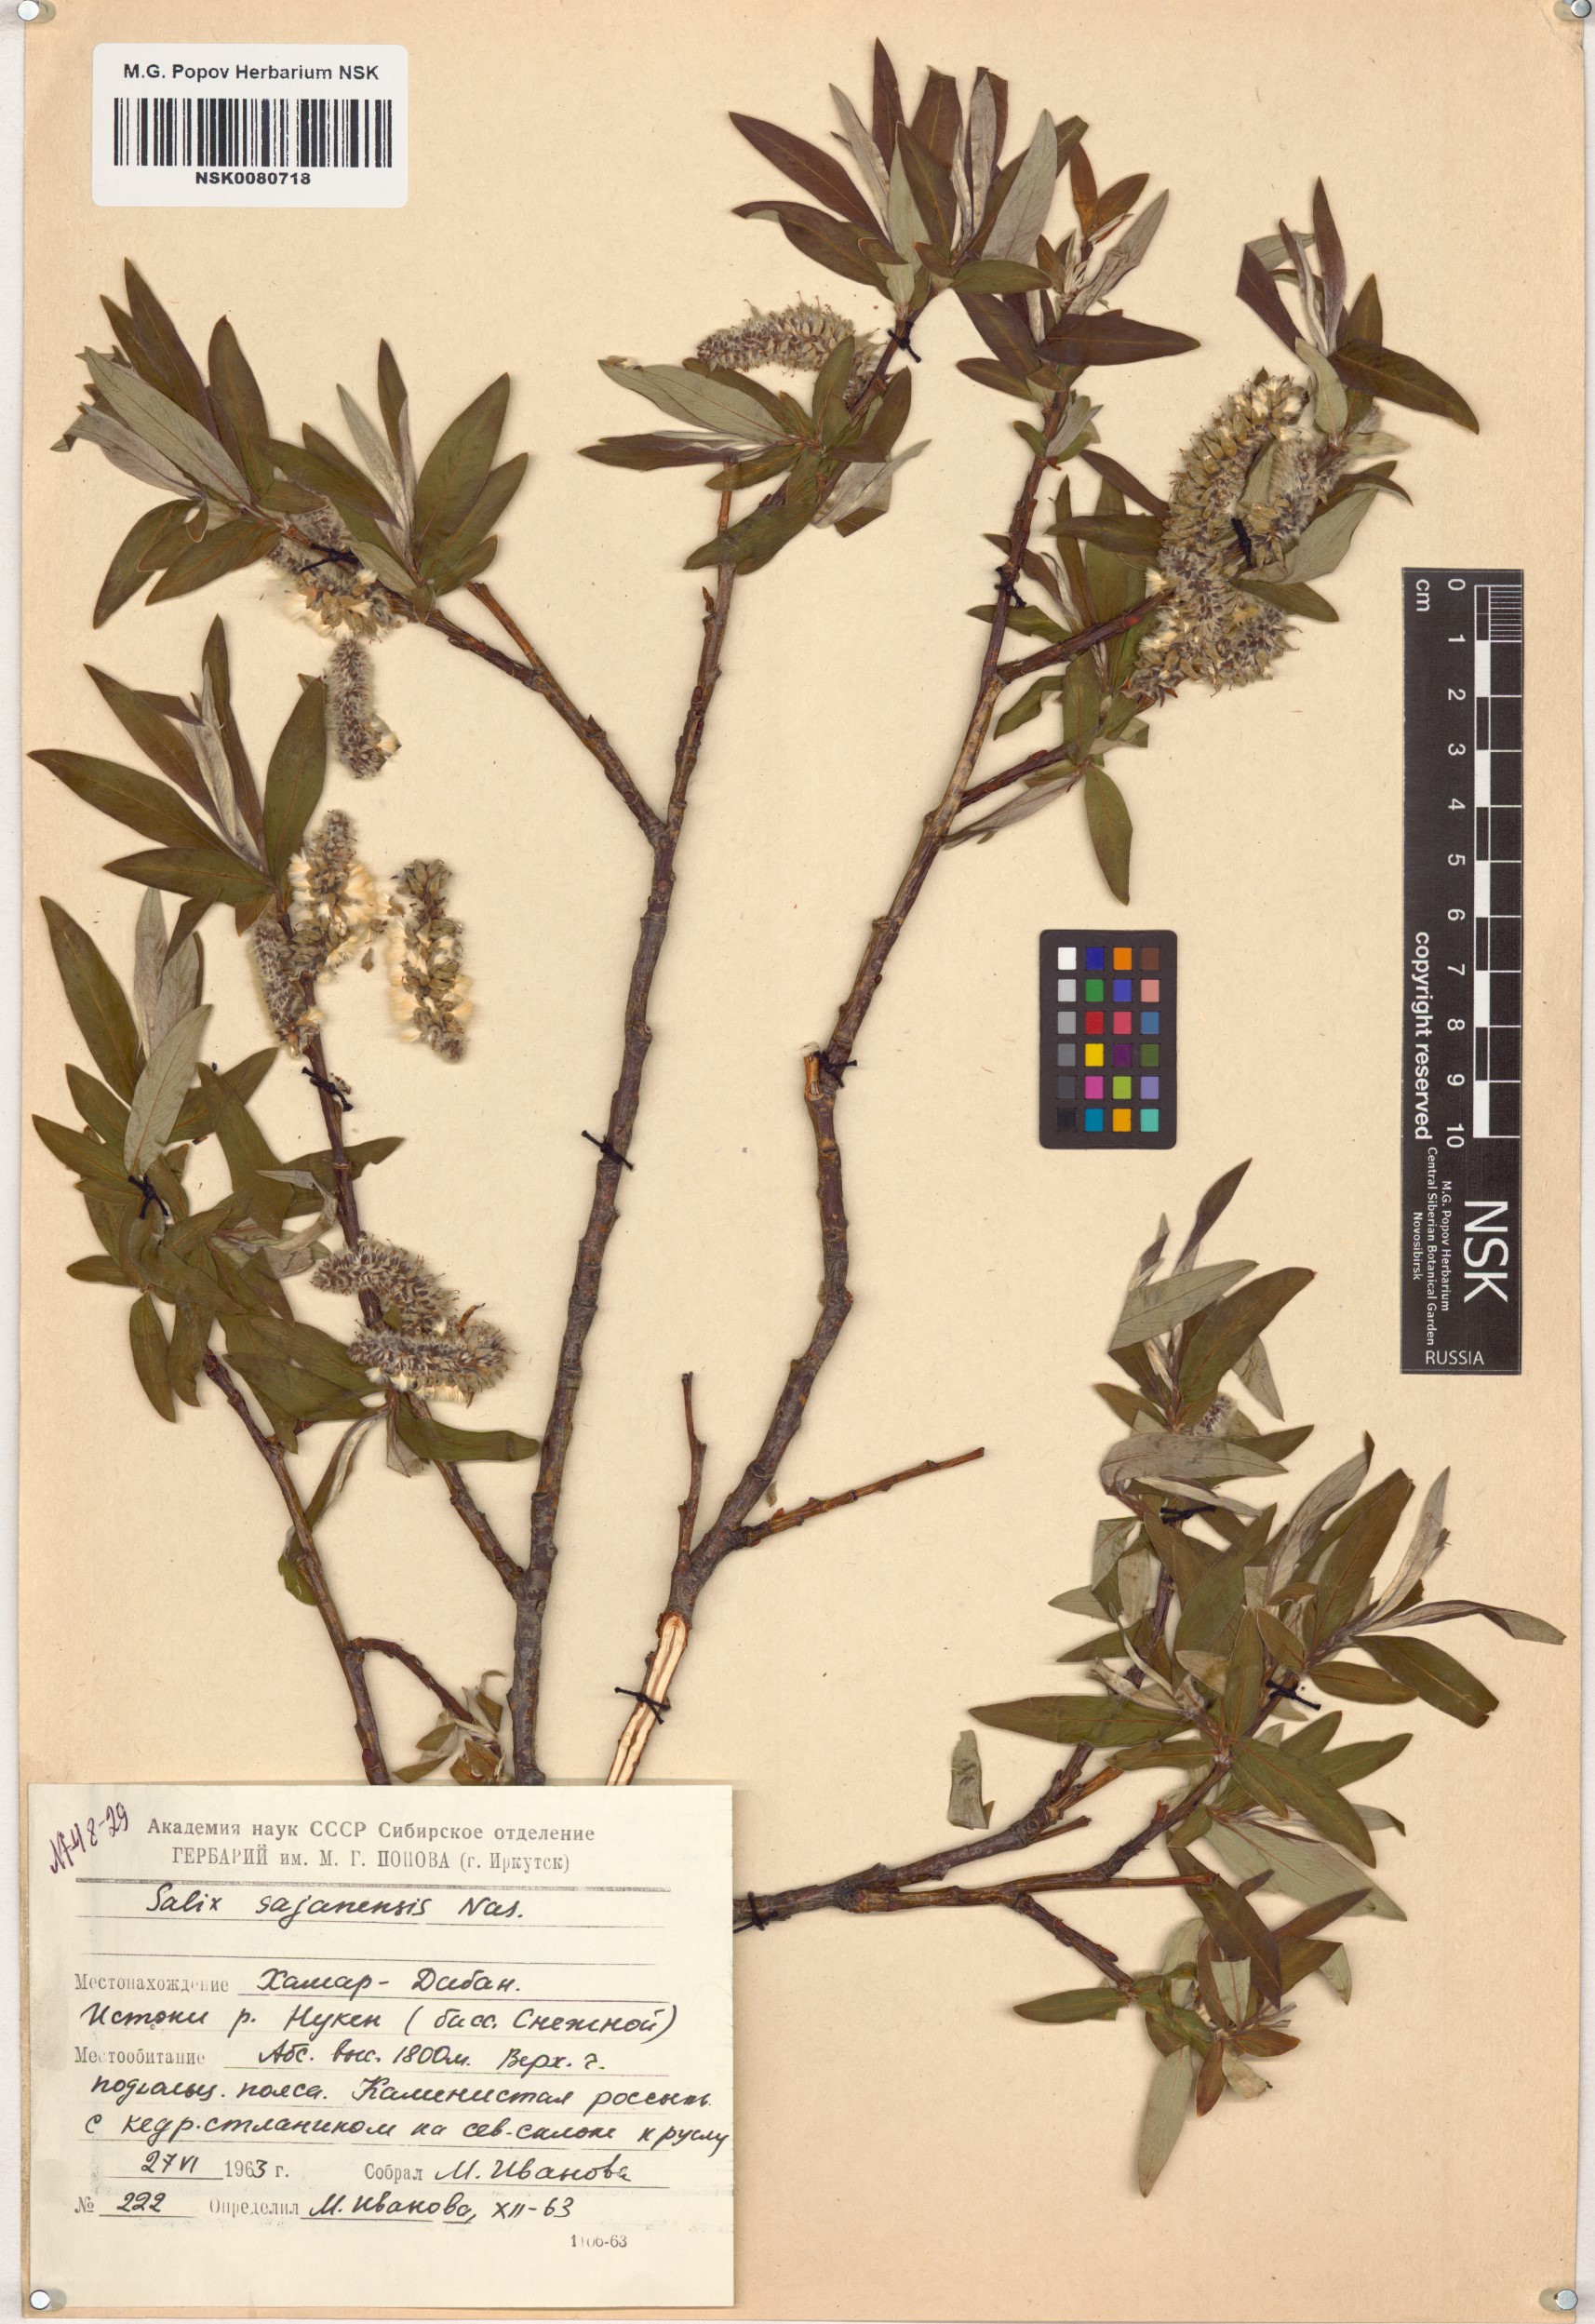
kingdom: Plantae
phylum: Tracheophyta
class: Magnoliopsida
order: Malpighiales
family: Salicaceae
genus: Salix
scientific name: Salix sajanensis
